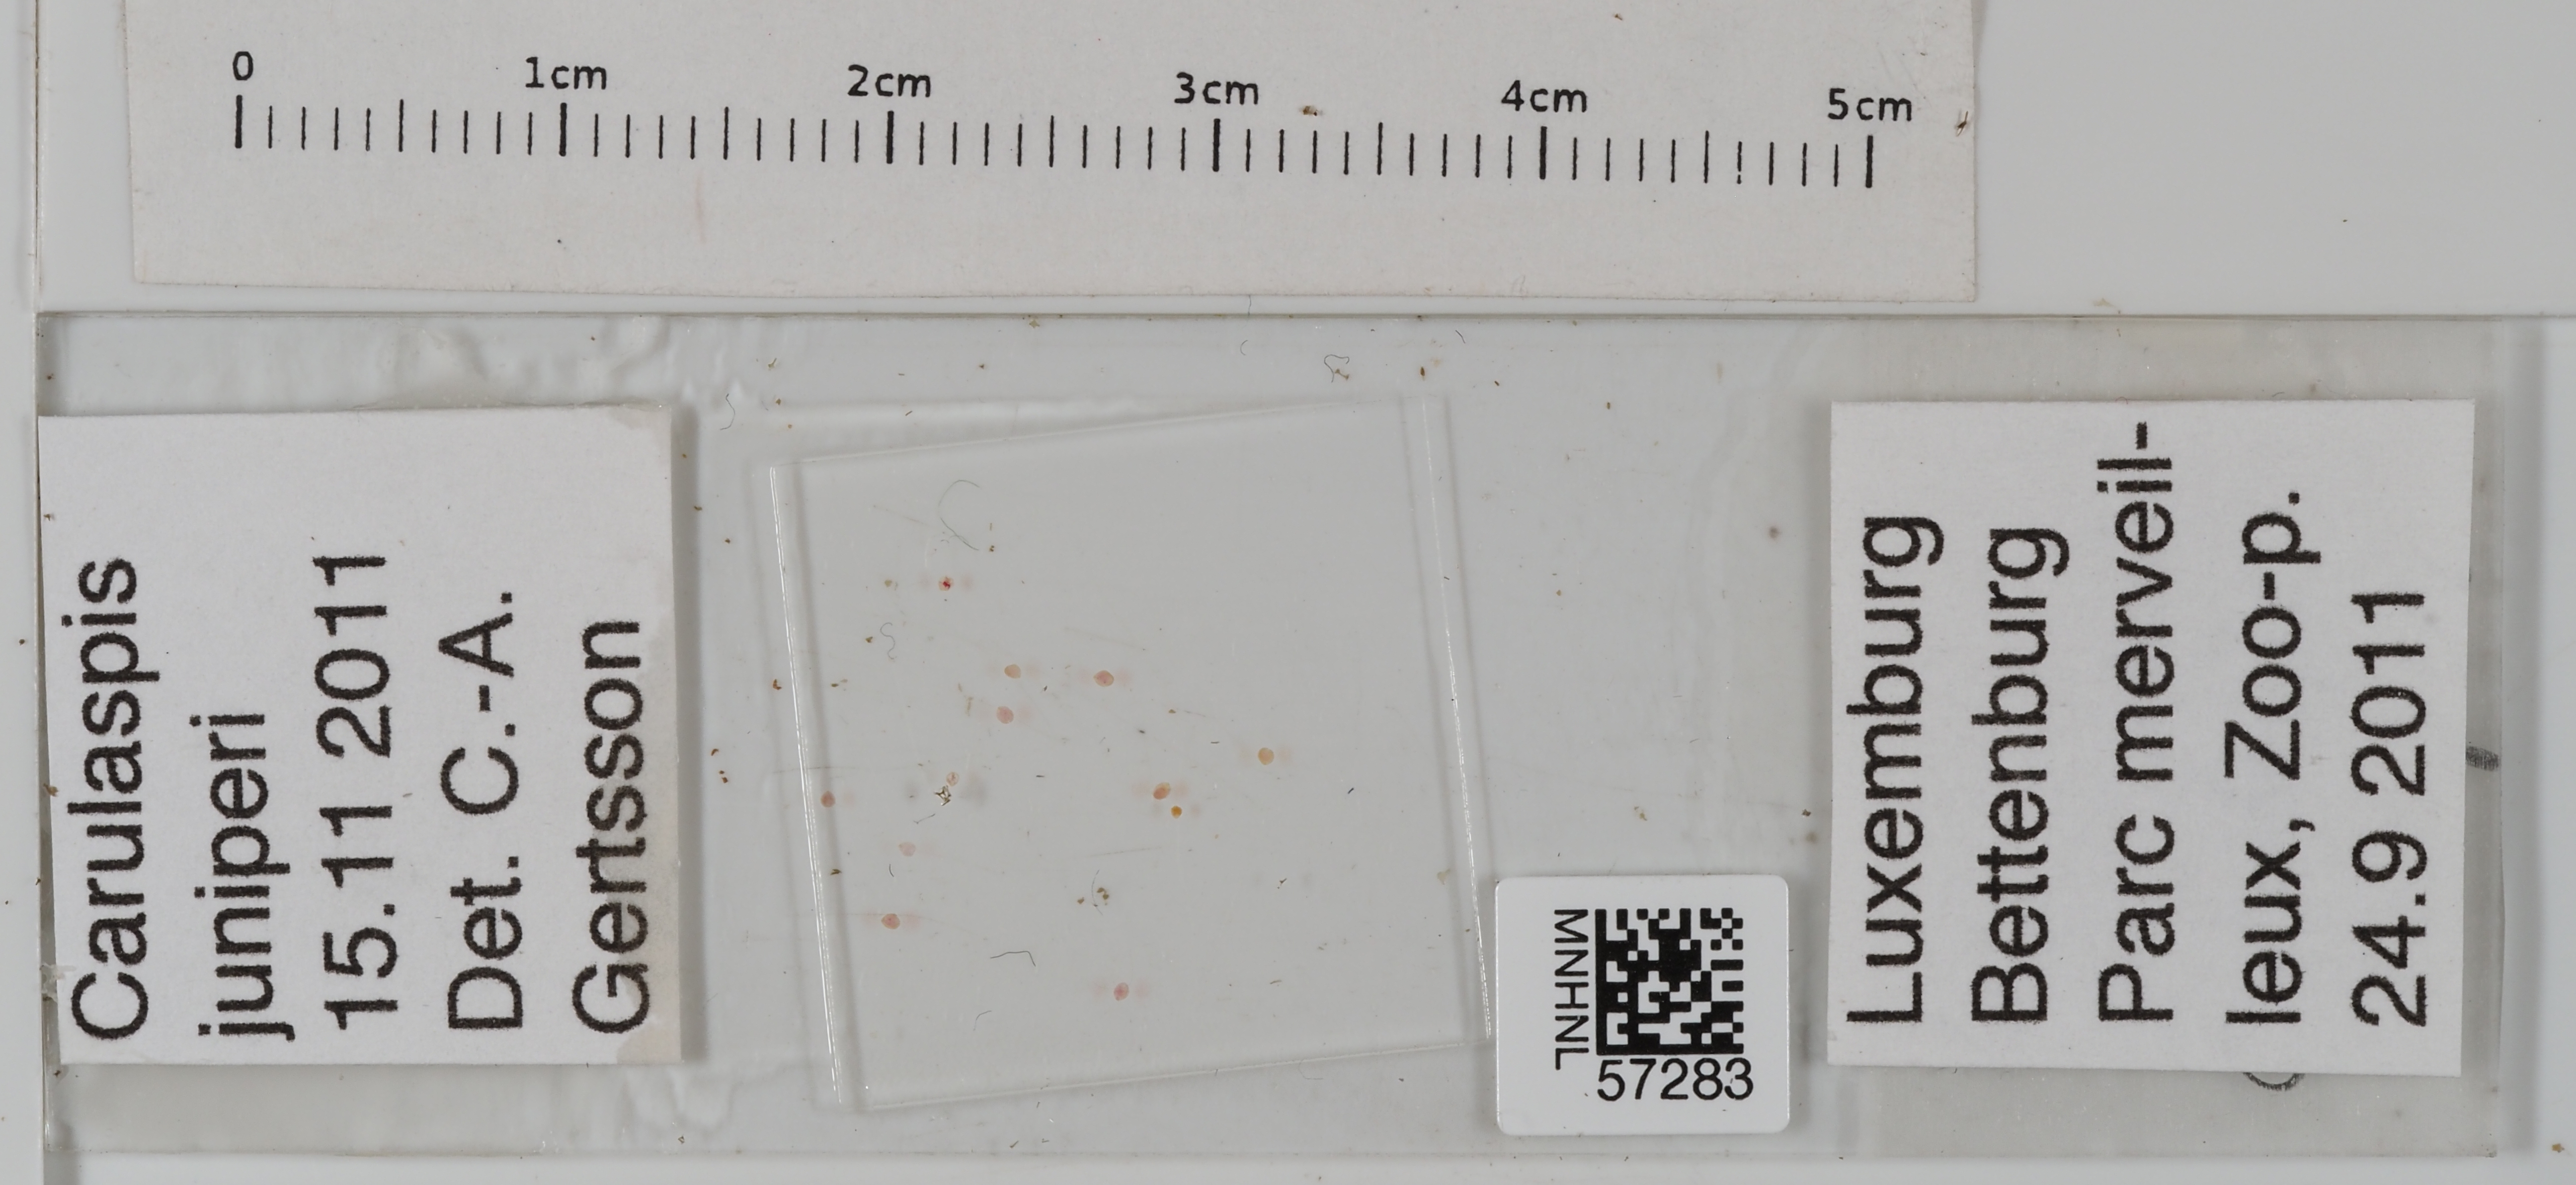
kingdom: Animalia
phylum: Arthropoda
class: Insecta
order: Hemiptera
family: Diaspididae
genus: Carulaspis
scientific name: Carulaspis juniperi
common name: Juniper scale
